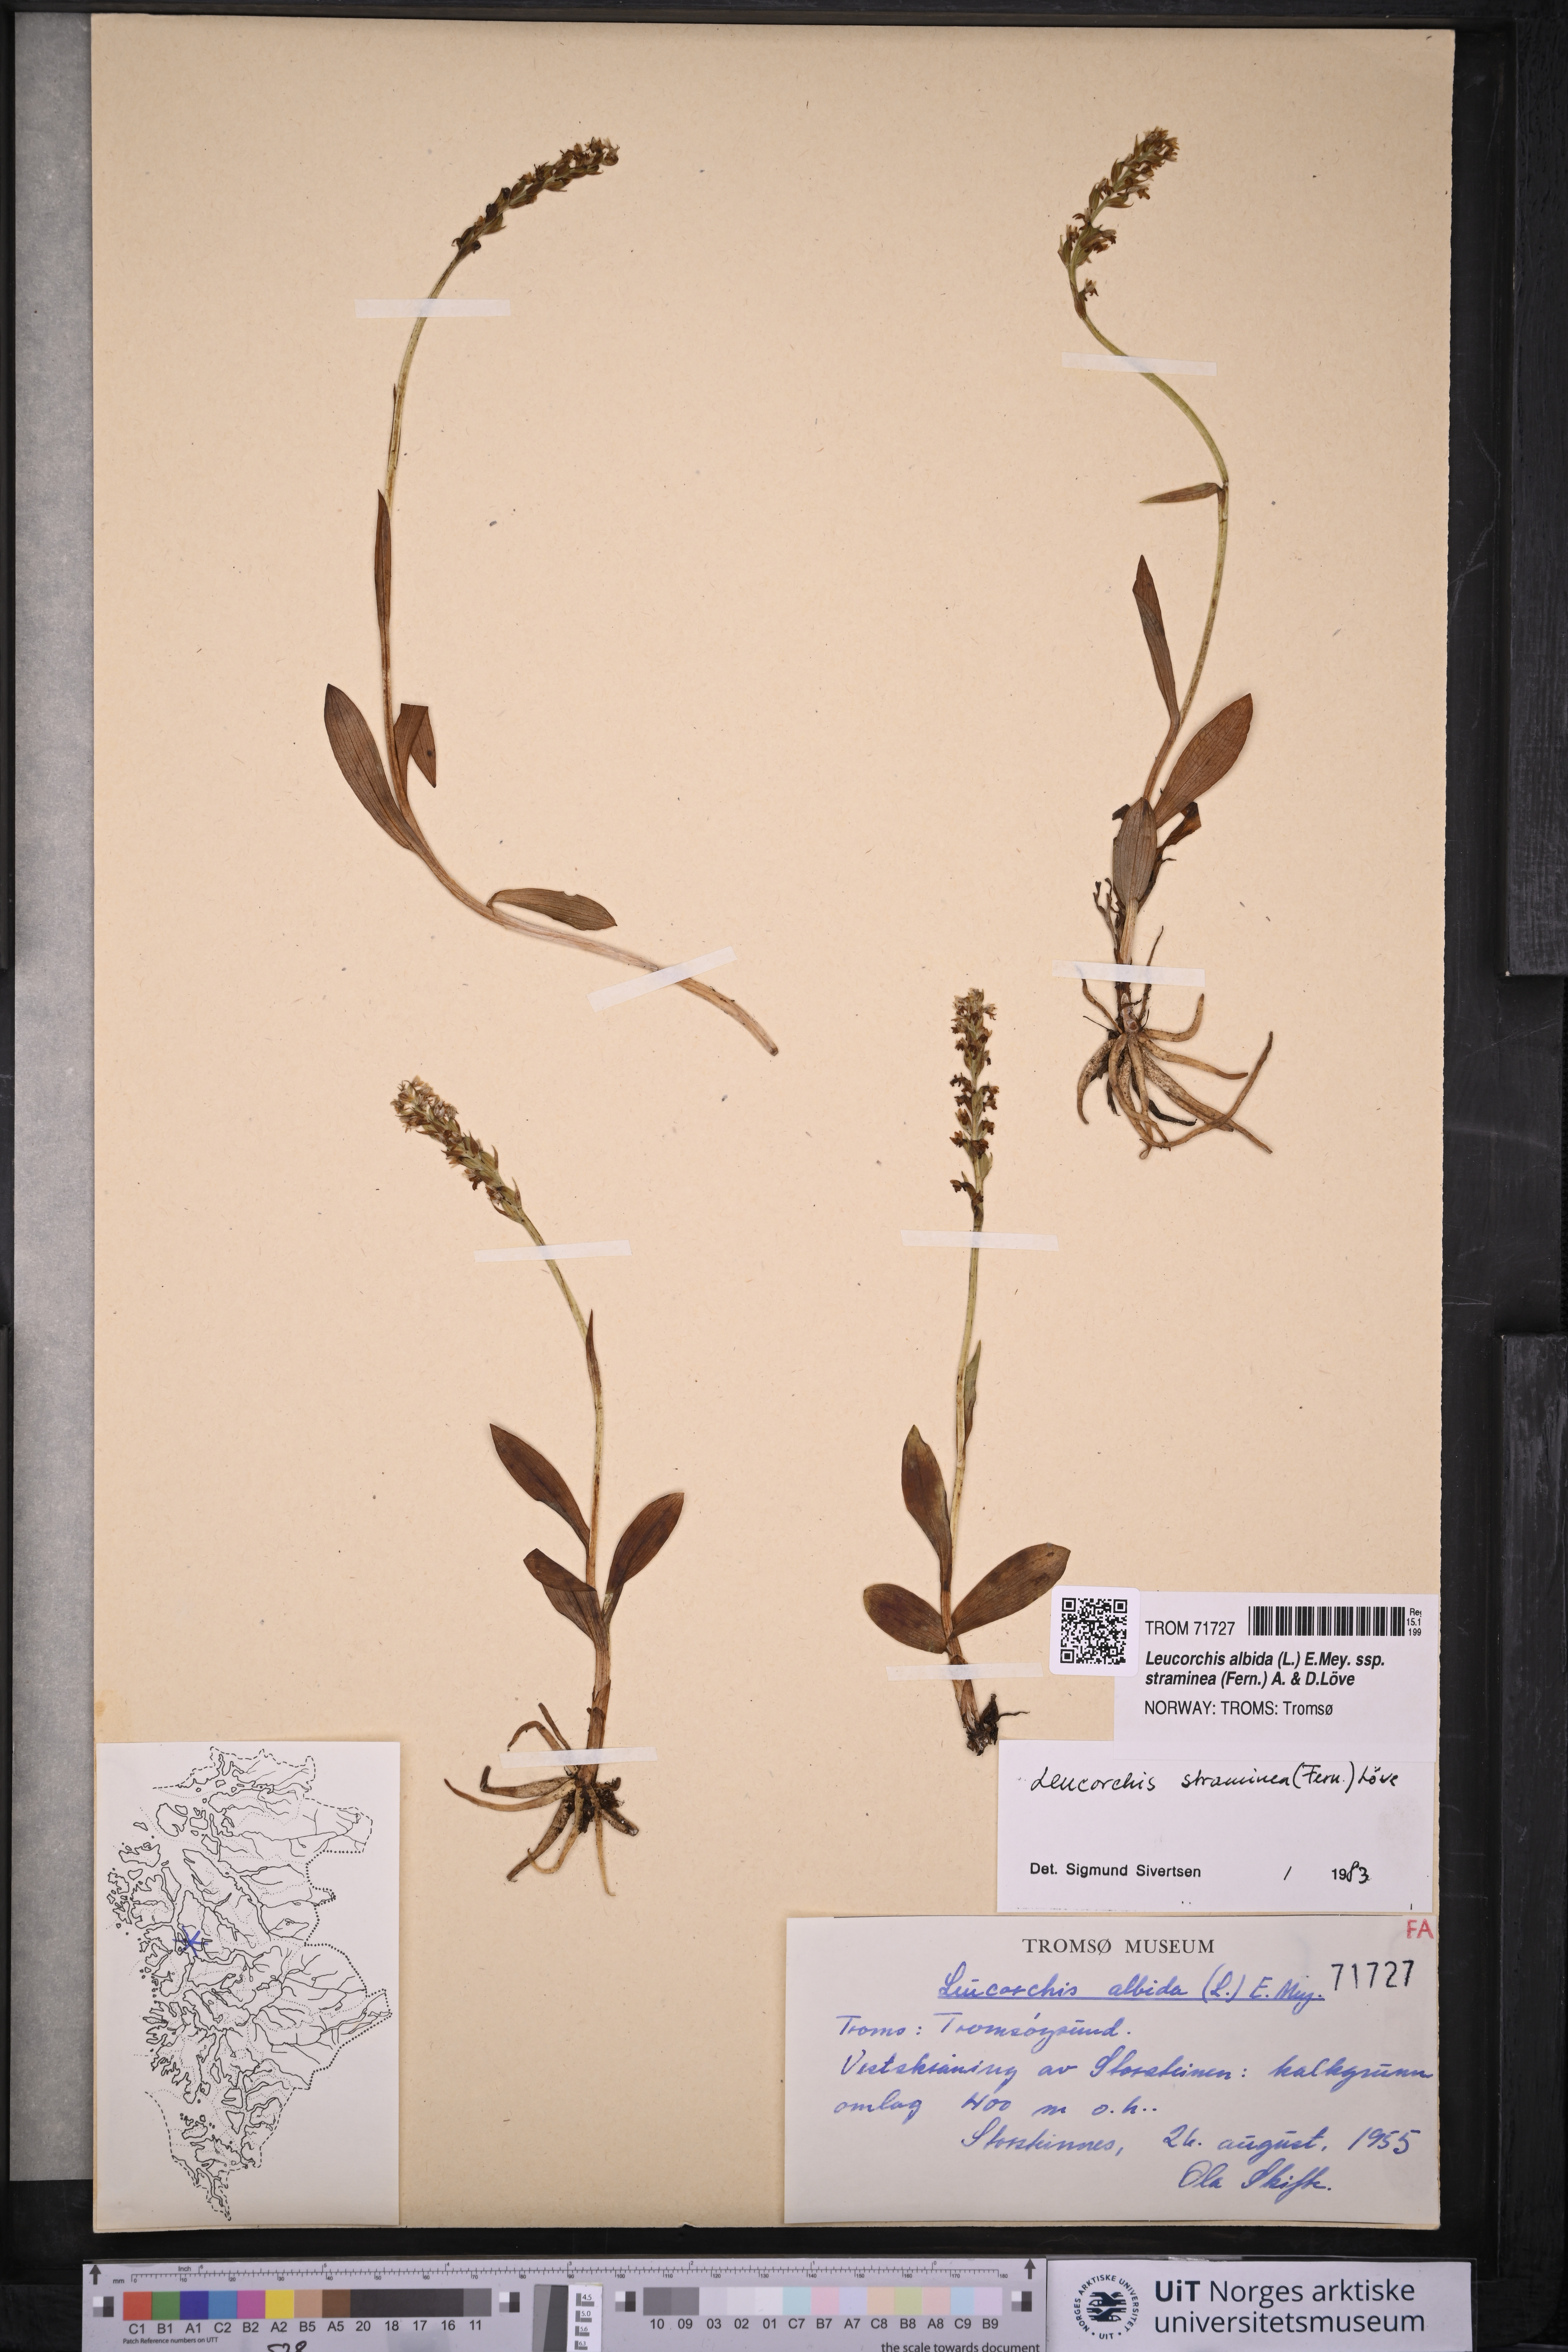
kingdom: Plantae
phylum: Tracheophyta
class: Liliopsida
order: Asparagales
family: Orchidaceae
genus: Pseudorchis
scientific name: Pseudorchis straminea
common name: Vanilla-scented bog orchid
